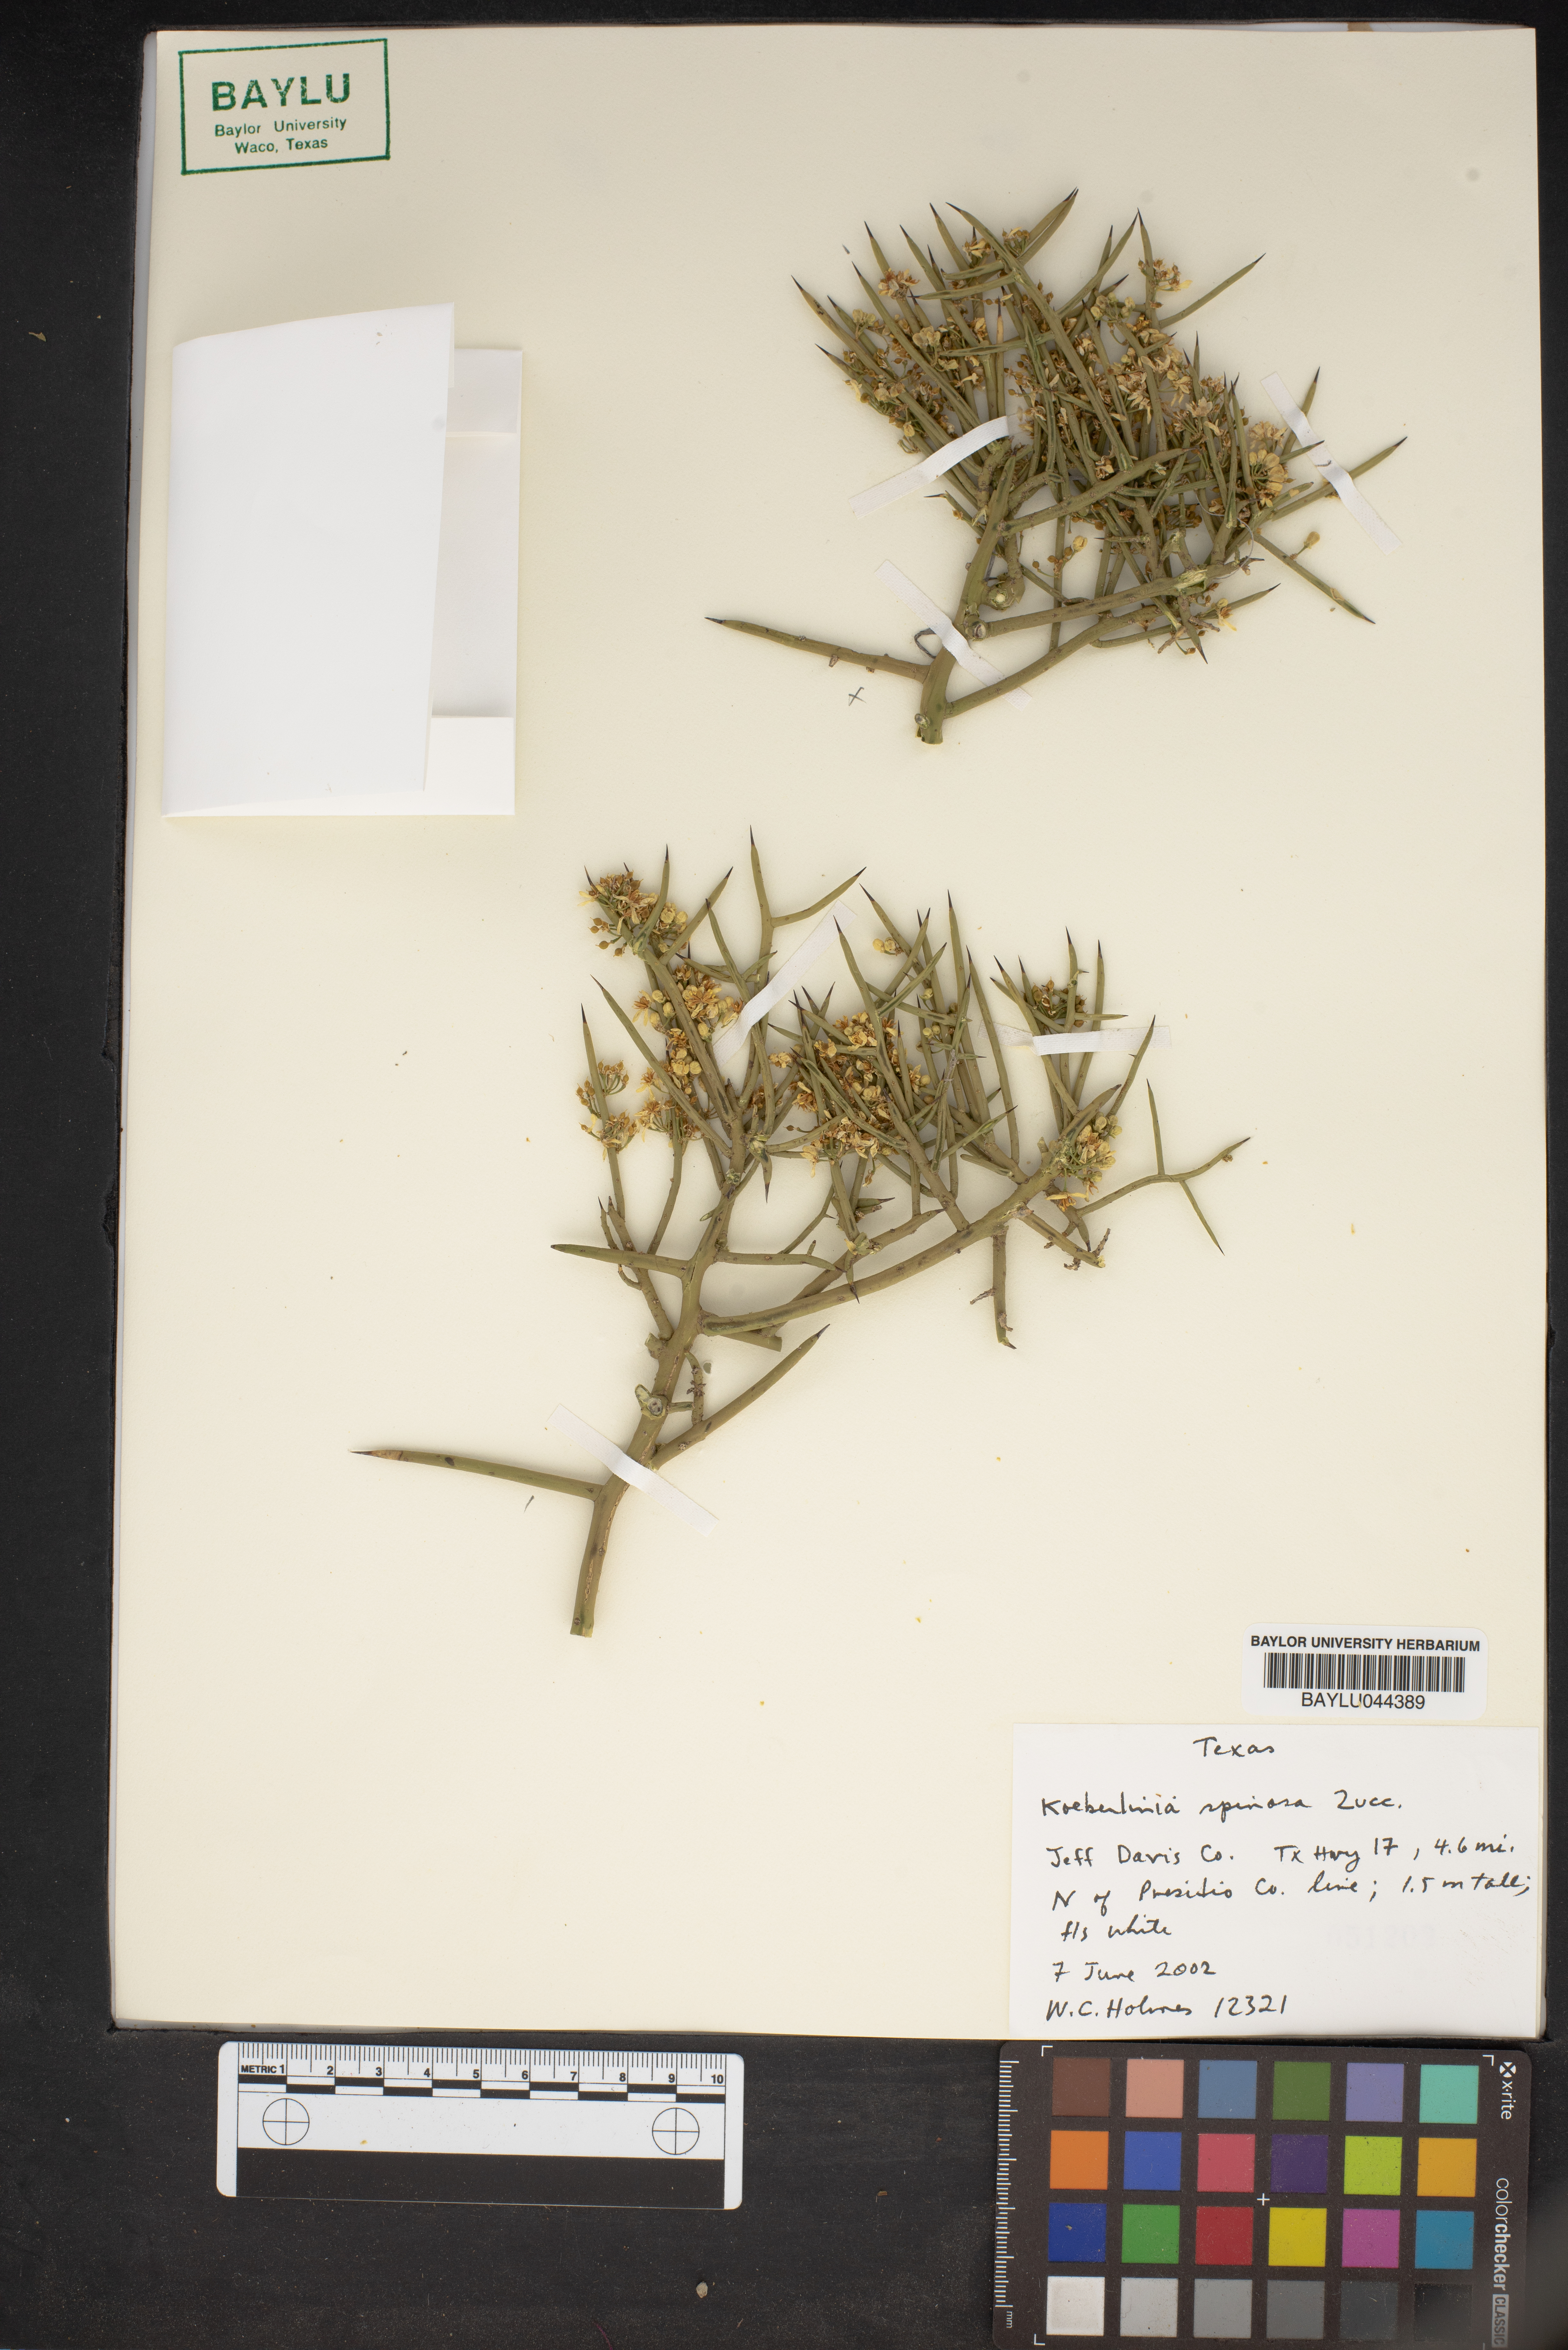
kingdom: Plantae
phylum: Tracheophyta
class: Magnoliopsida
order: Brassicales
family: Koeberliniaceae
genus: Koeberlinia
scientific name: Koeberlinia spinosa
